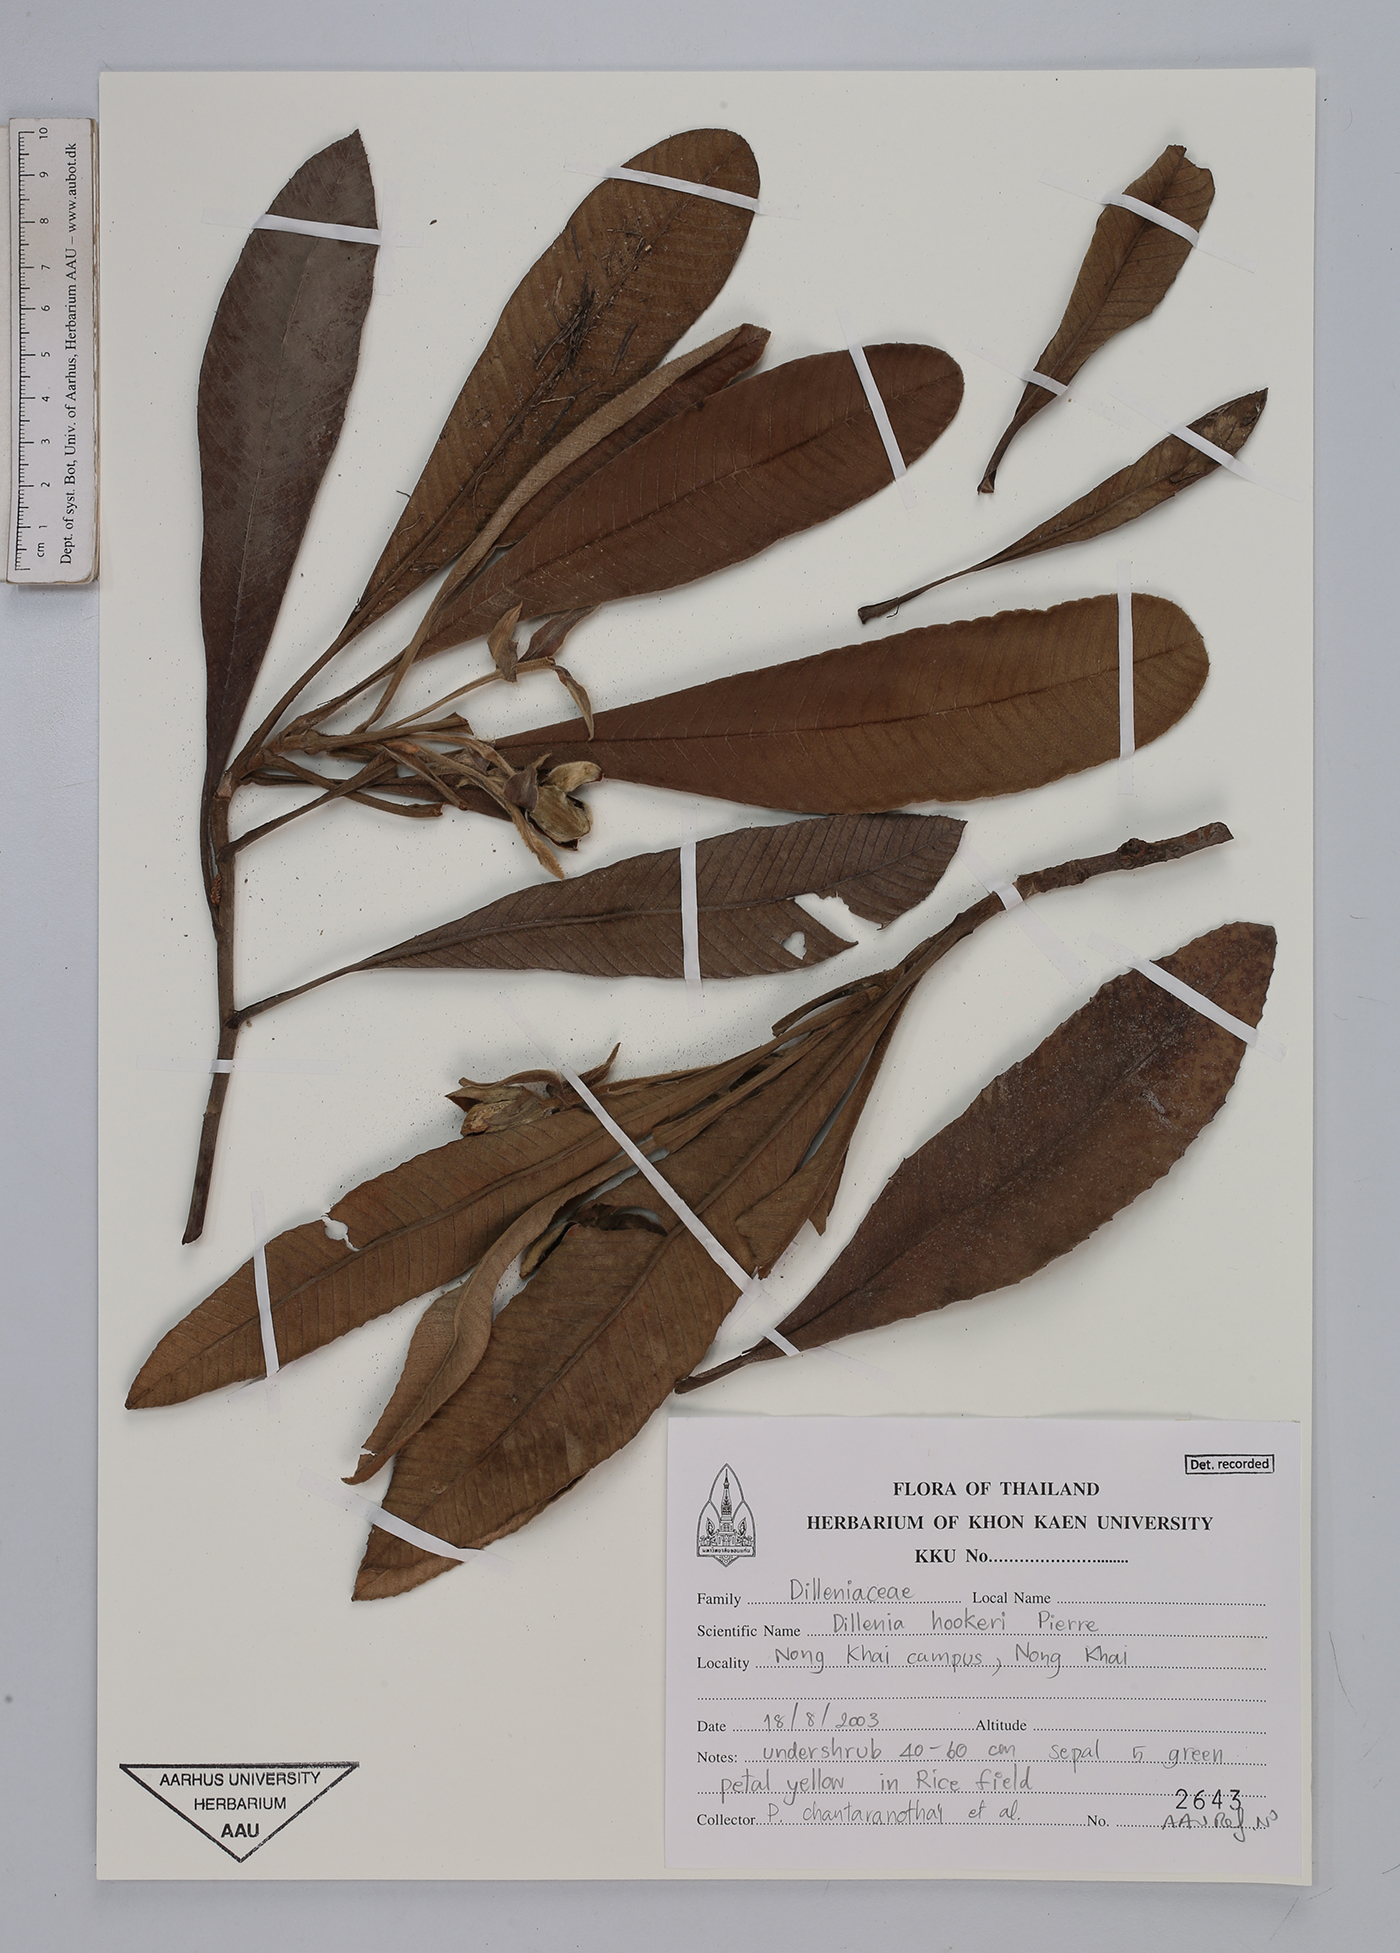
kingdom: Plantae
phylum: Tracheophyta
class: Magnoliopsida
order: Dilleniales
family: Dilleniaceae
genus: Dillenia
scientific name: Dillenia hookeri
